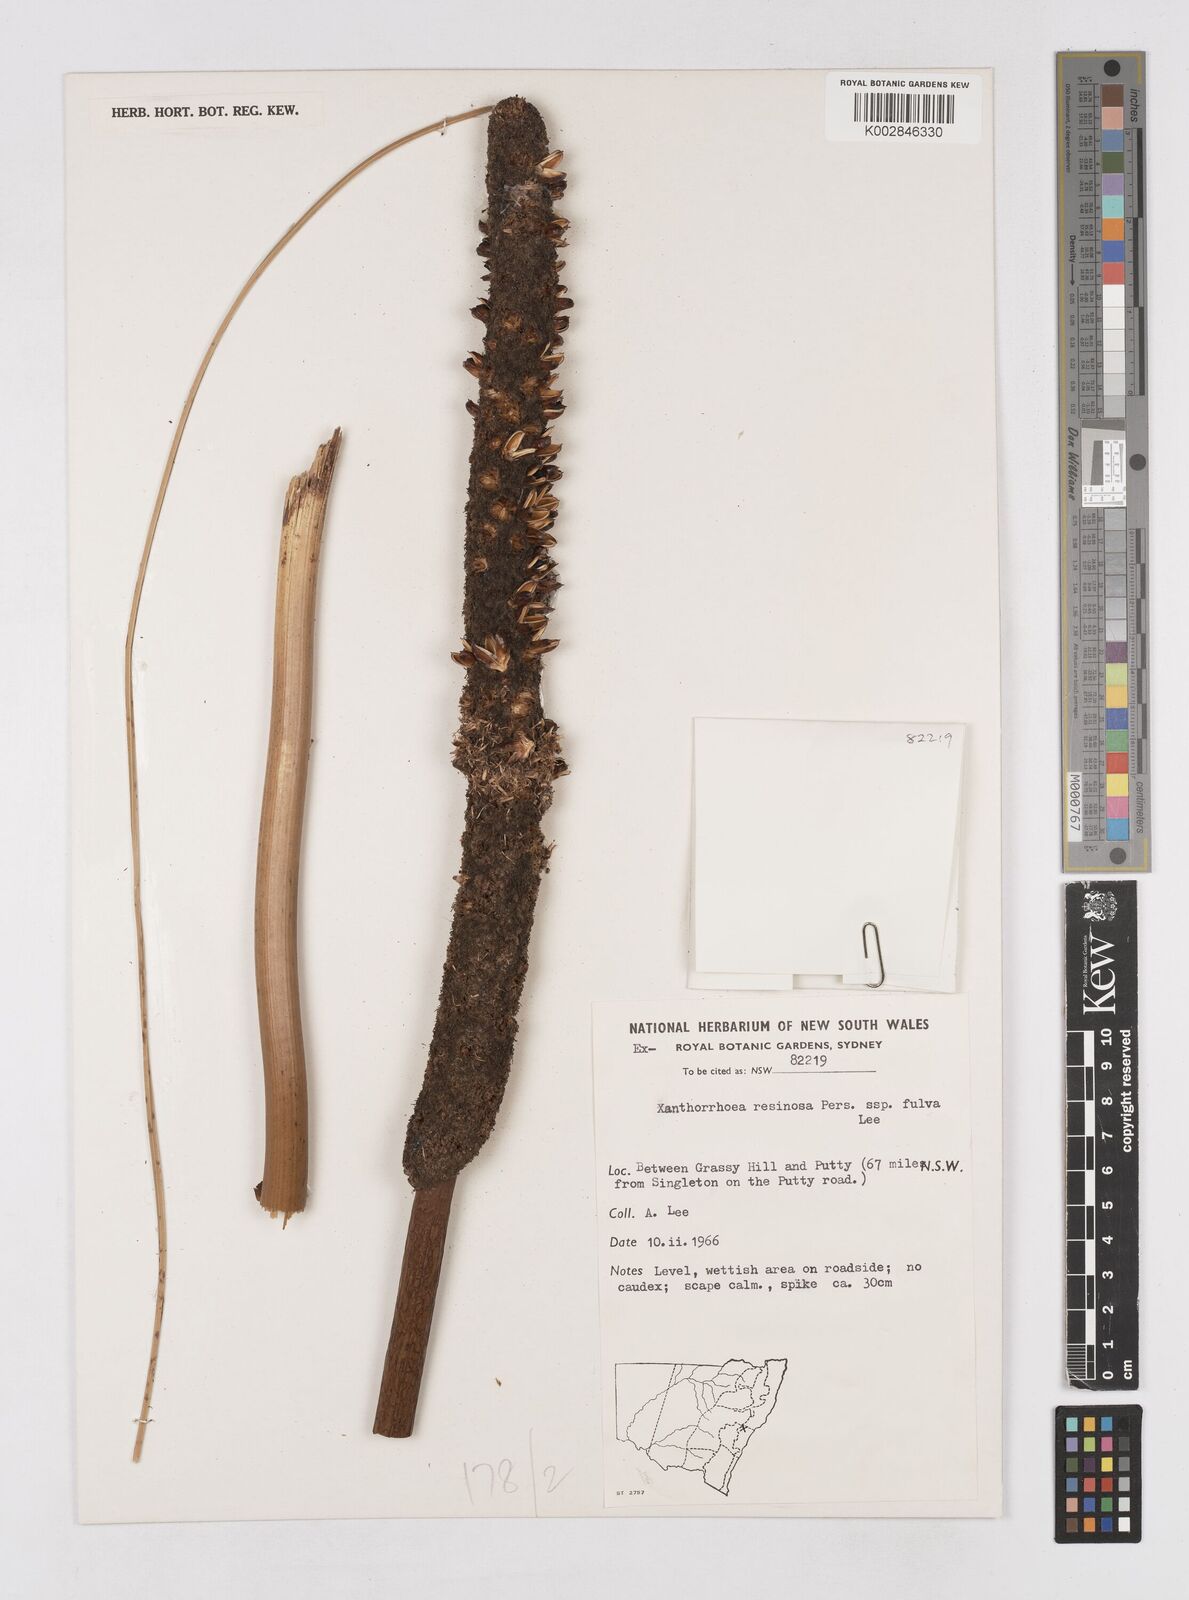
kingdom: Plantae
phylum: Tracheophyta
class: Liliopsida
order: Asparagales
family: Asphodelaceae
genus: Xanthorrhoea
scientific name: Xanthorrhoea fulva
